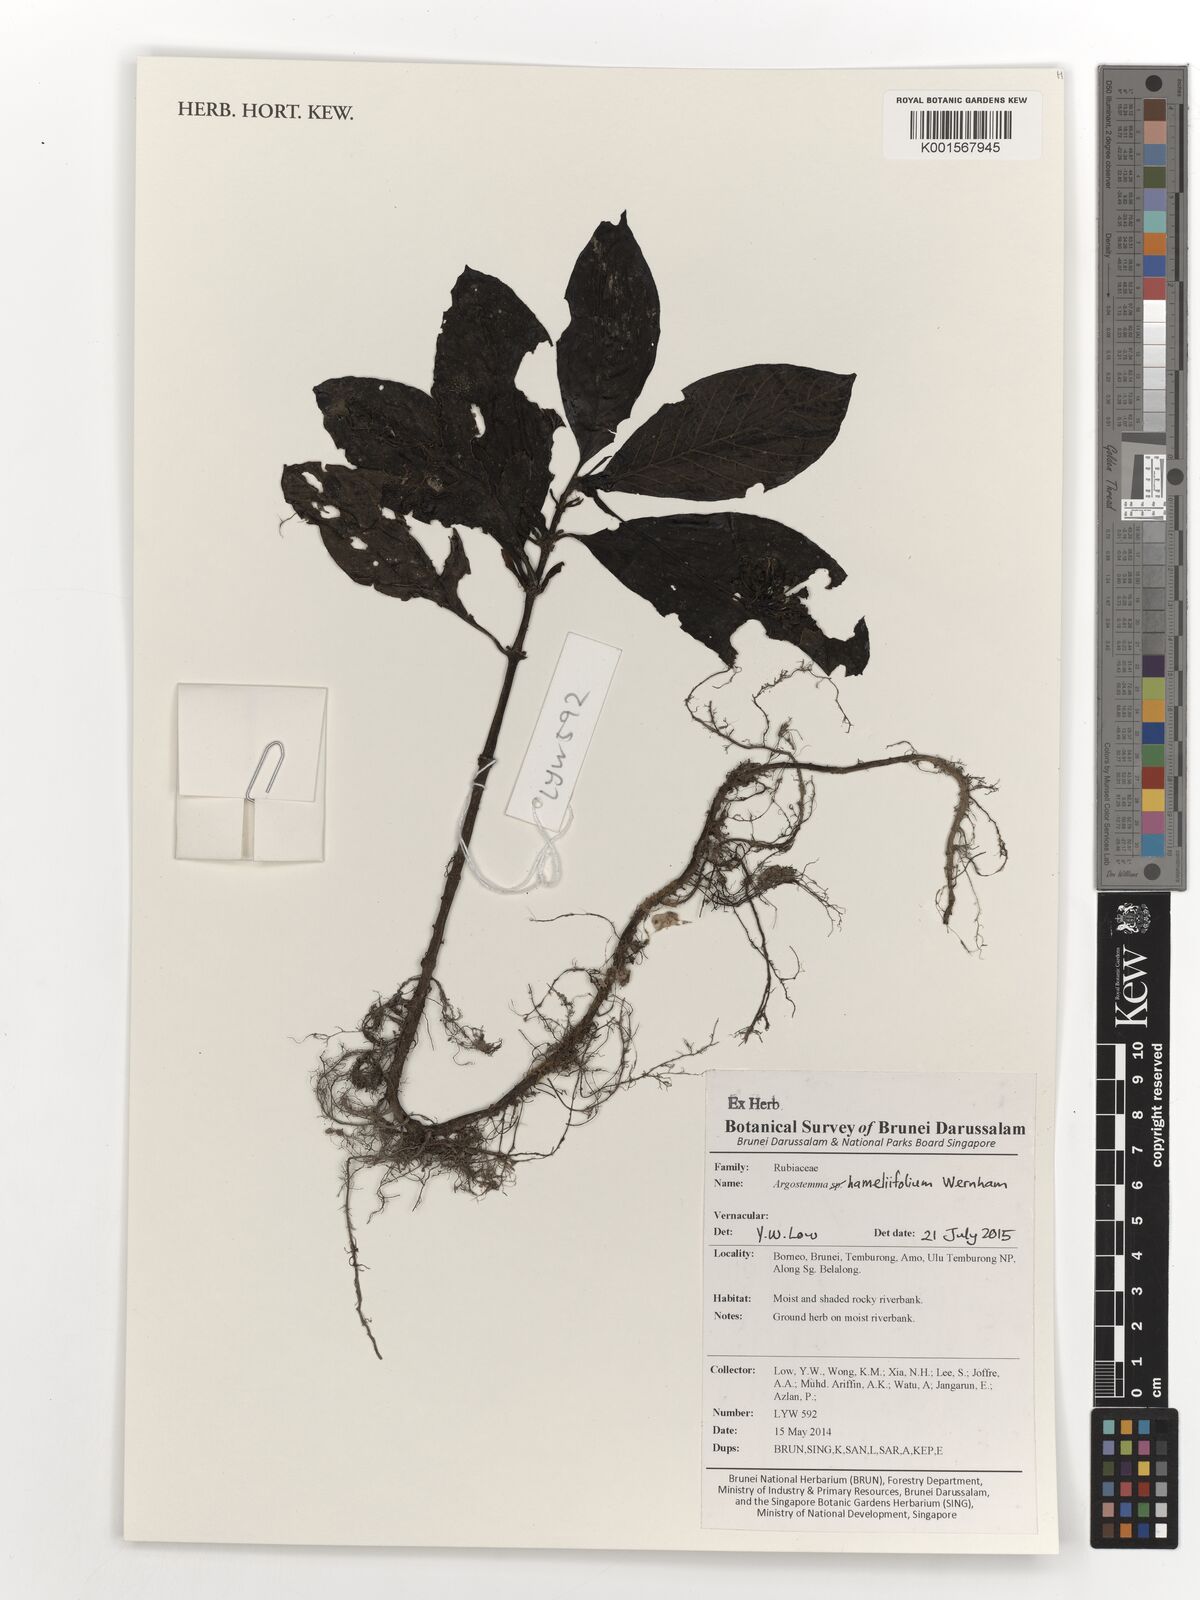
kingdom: Plantae
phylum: Tracheophyta
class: Magnoliopsida
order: Gentianales
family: Rubiaceae
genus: Argostemma
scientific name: Argostemma hameliifolium
